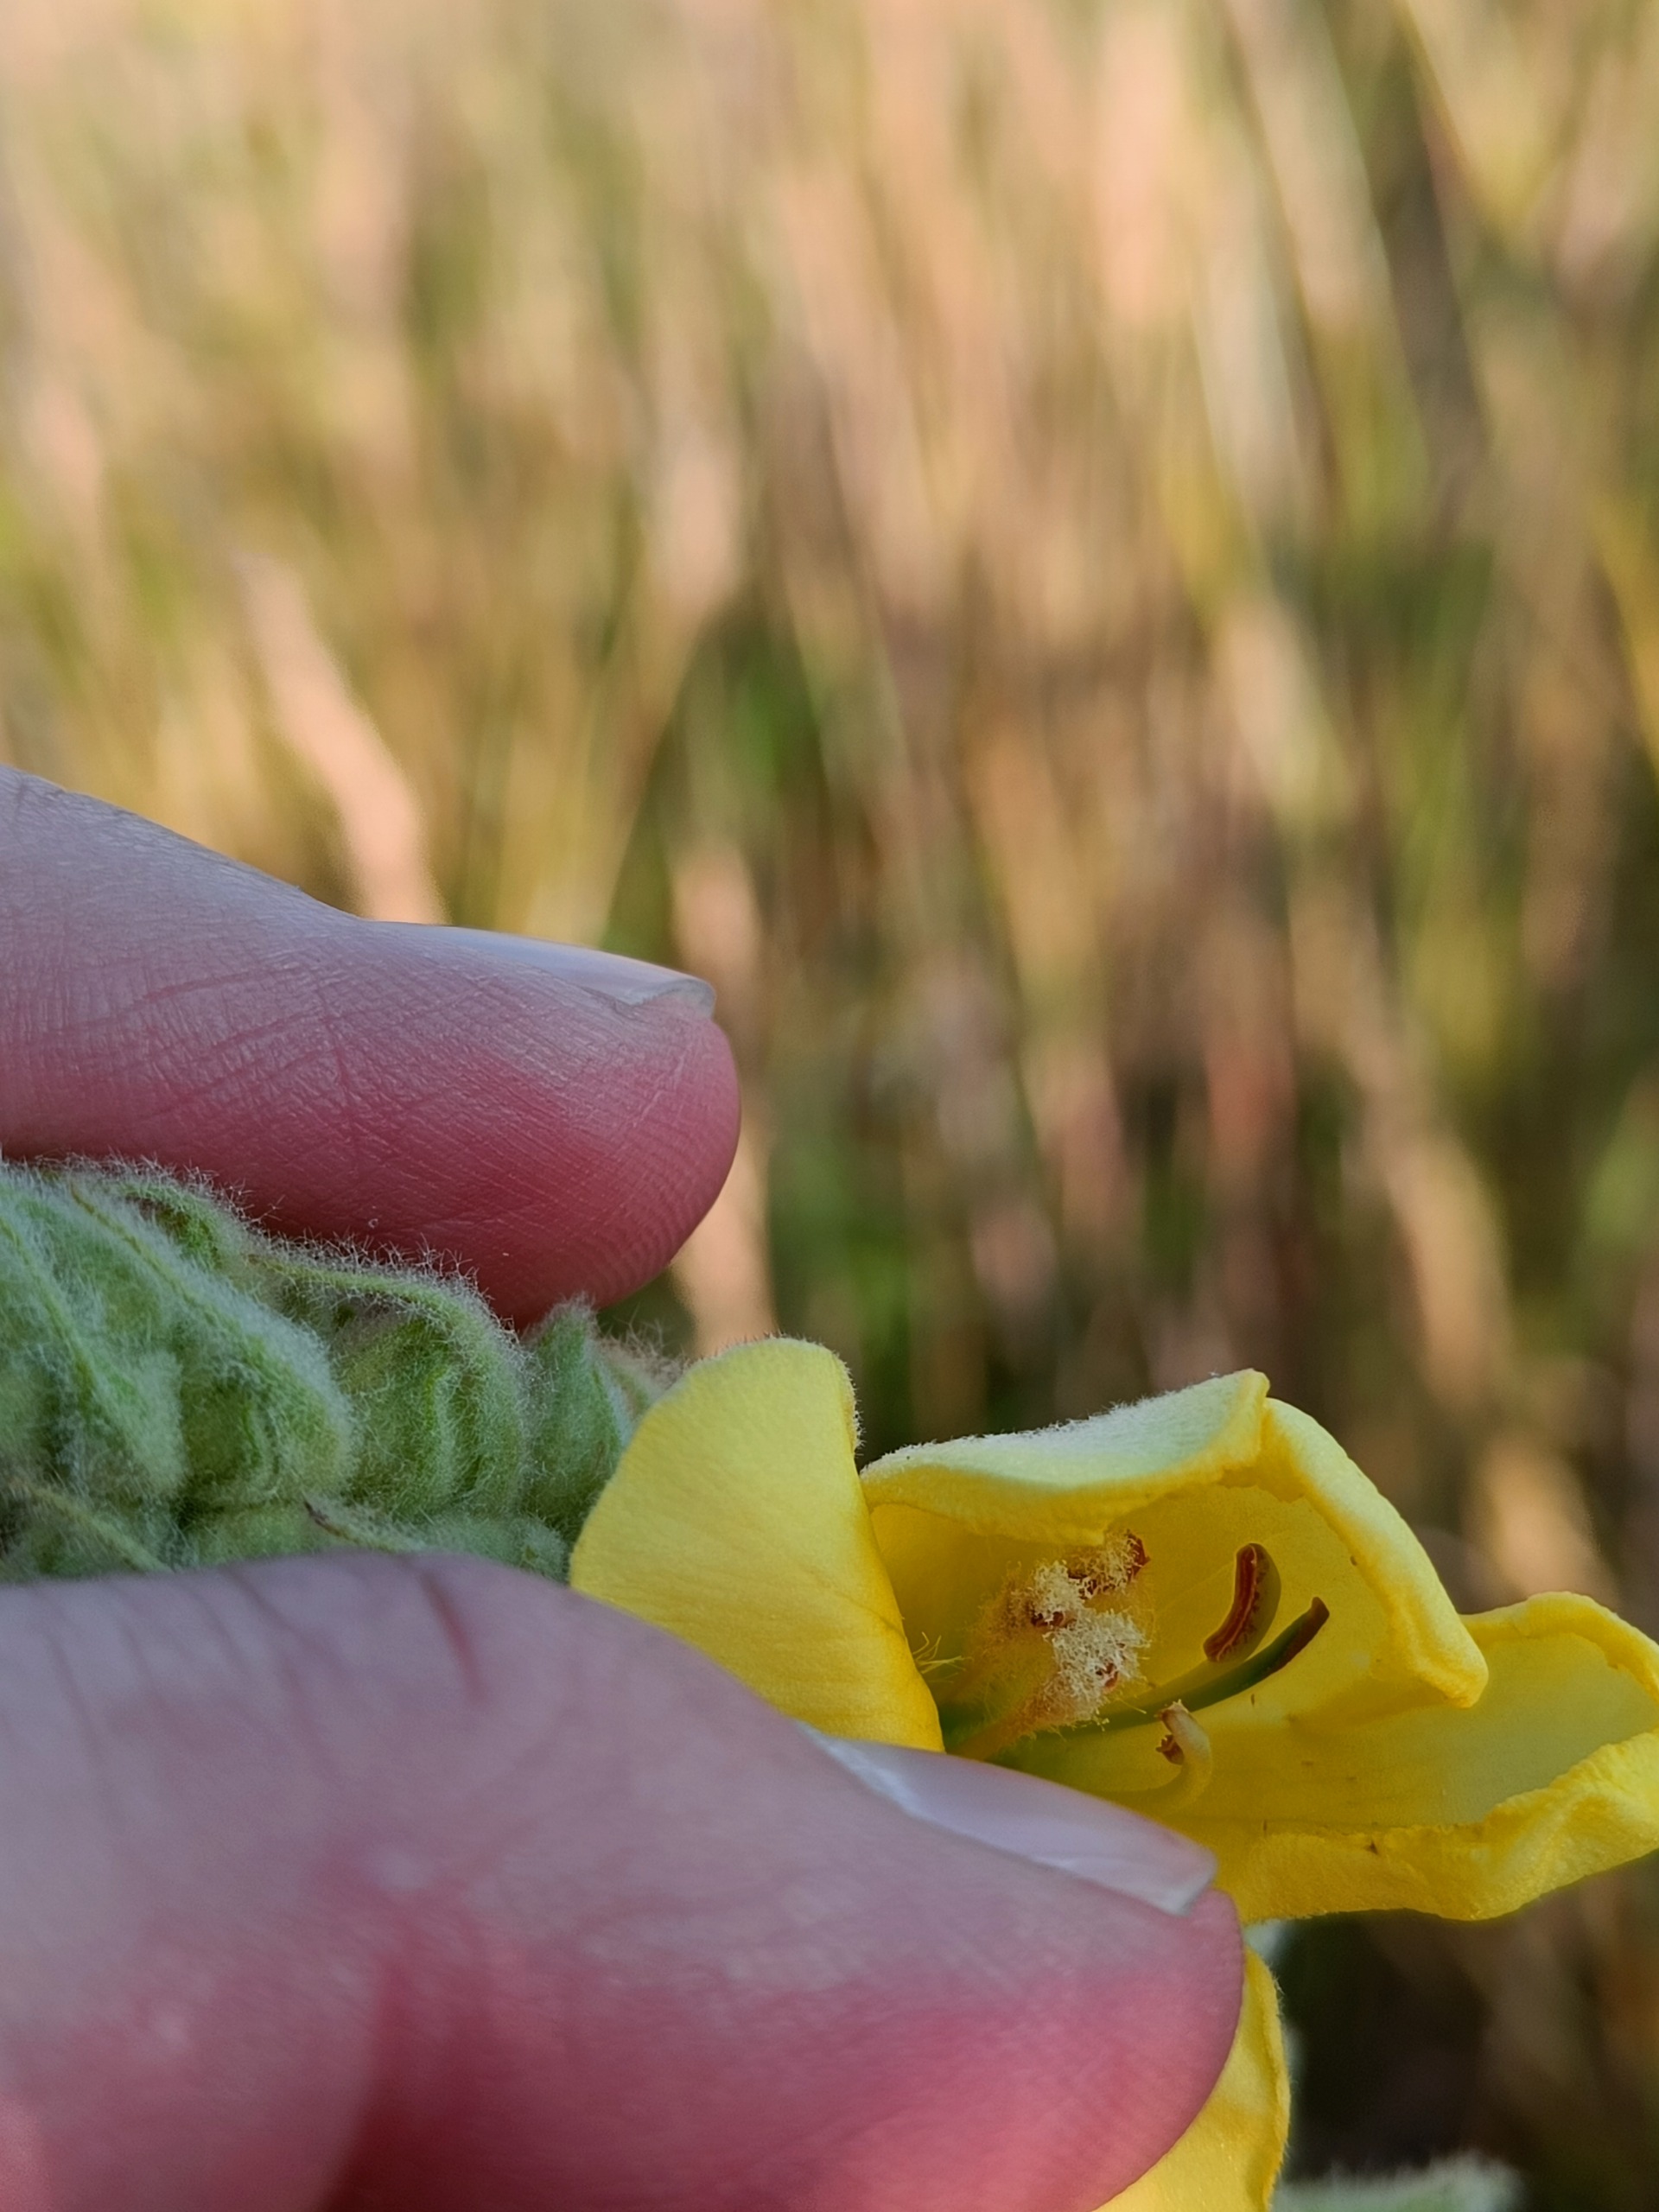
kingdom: Plantae
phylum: Tracheophyta
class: Magnoliopsida
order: Lamiales
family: Scrophulariaceae
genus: Verbascum
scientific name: Verbascum densiflorum
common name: Uldbladet kongelys
